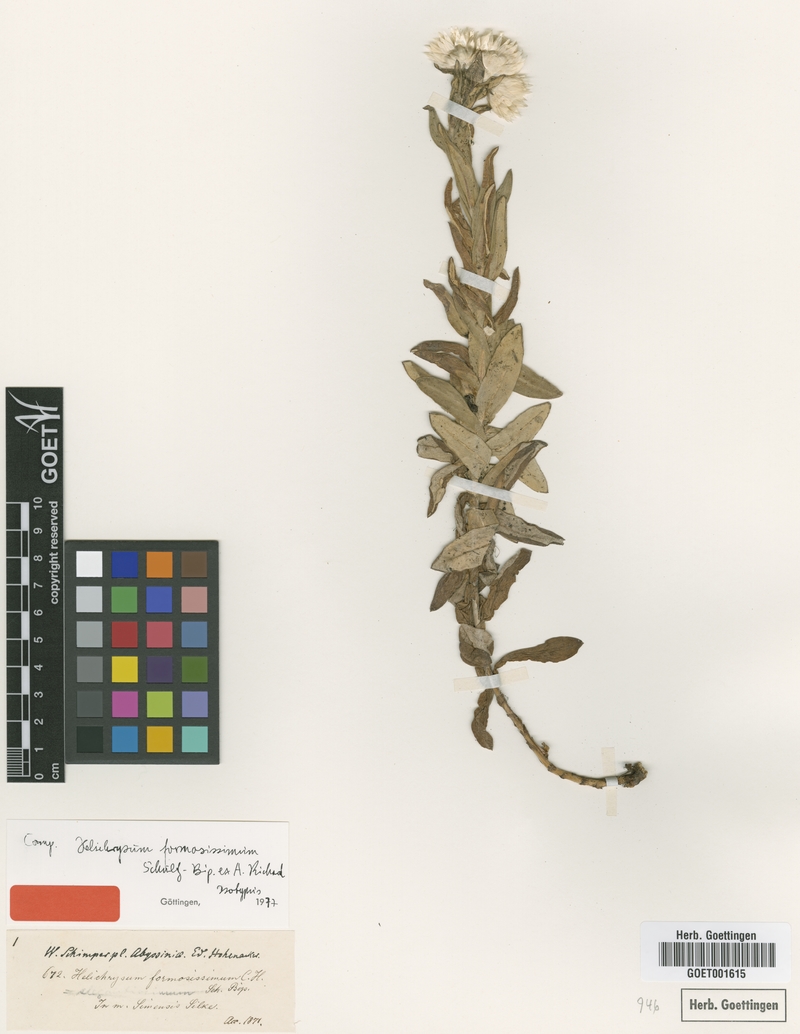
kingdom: Plantae
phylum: Tracheophyta
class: Magnoliopsida
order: Asterales
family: Asteraceae
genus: Helichrysum
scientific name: Helichrysum formosissimum
